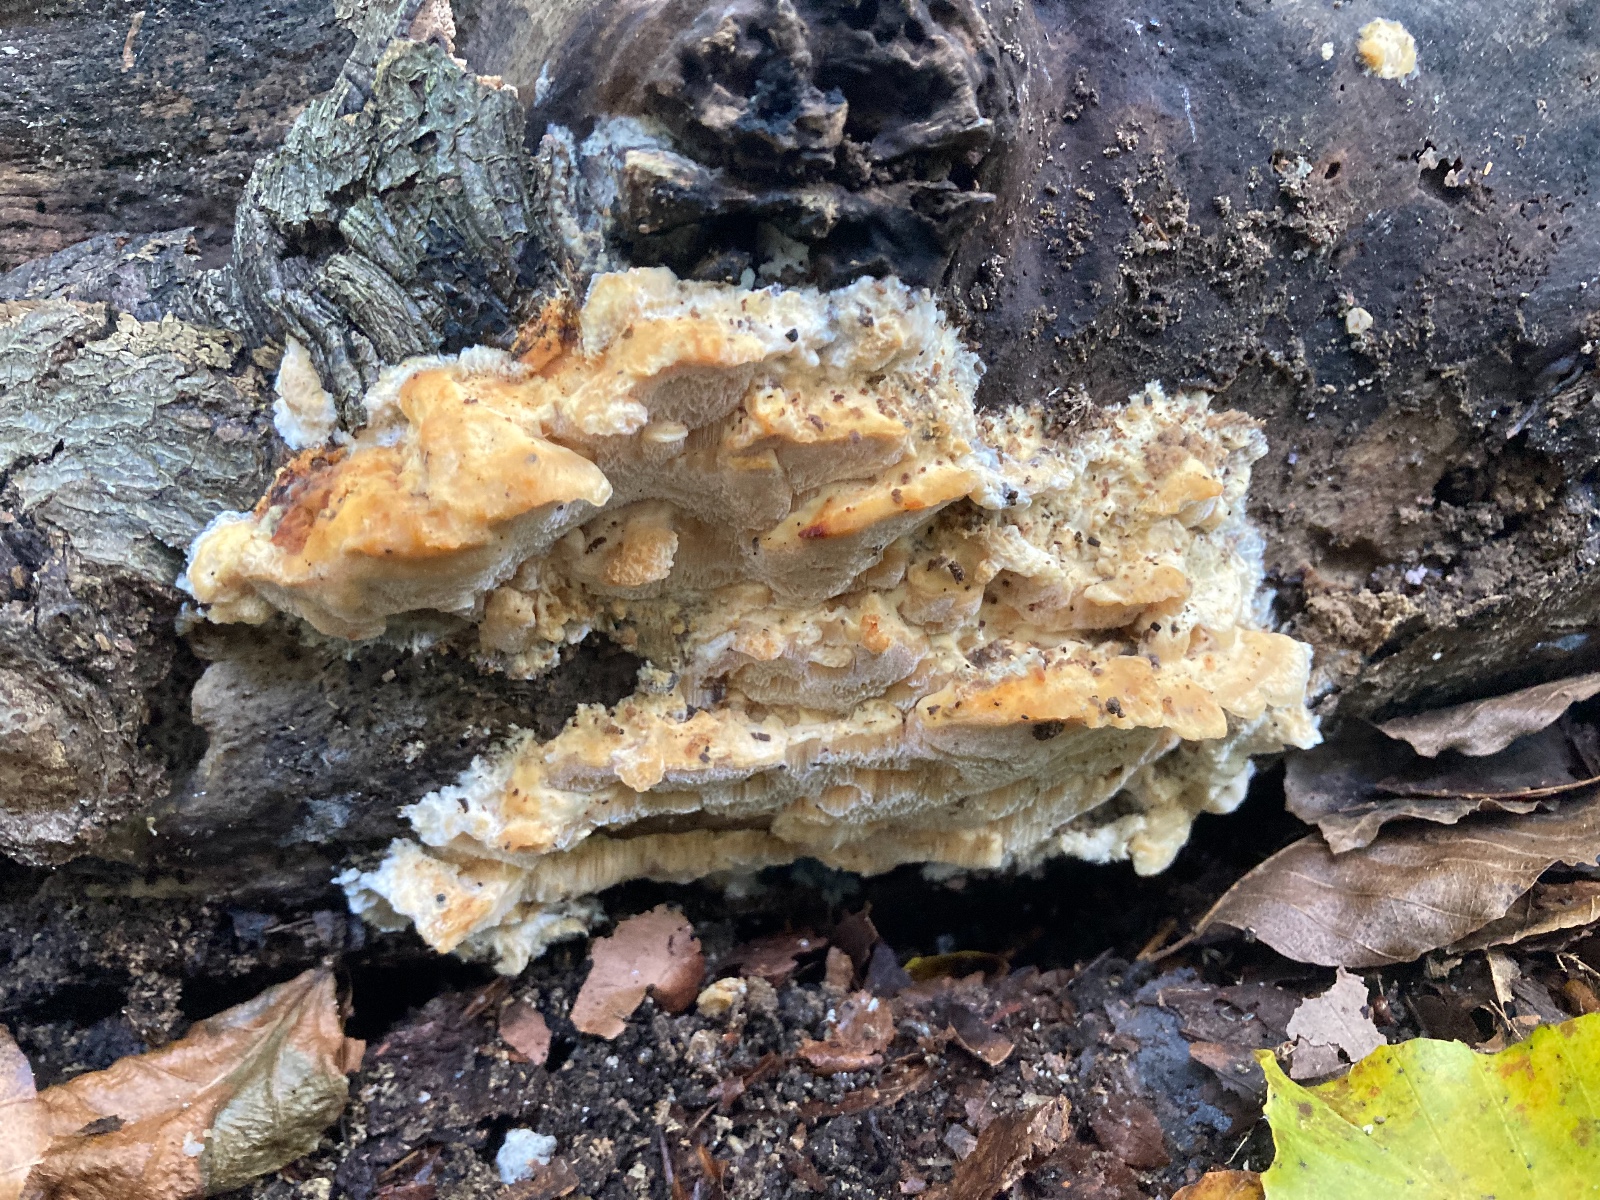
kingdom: Fungi
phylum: Basidiomycota
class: Agaricomycetes
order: Polyporales
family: Steccherinaceae
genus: Antrodiella
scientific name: Antrodiella mentschulensis
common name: abrikosporesvamp
